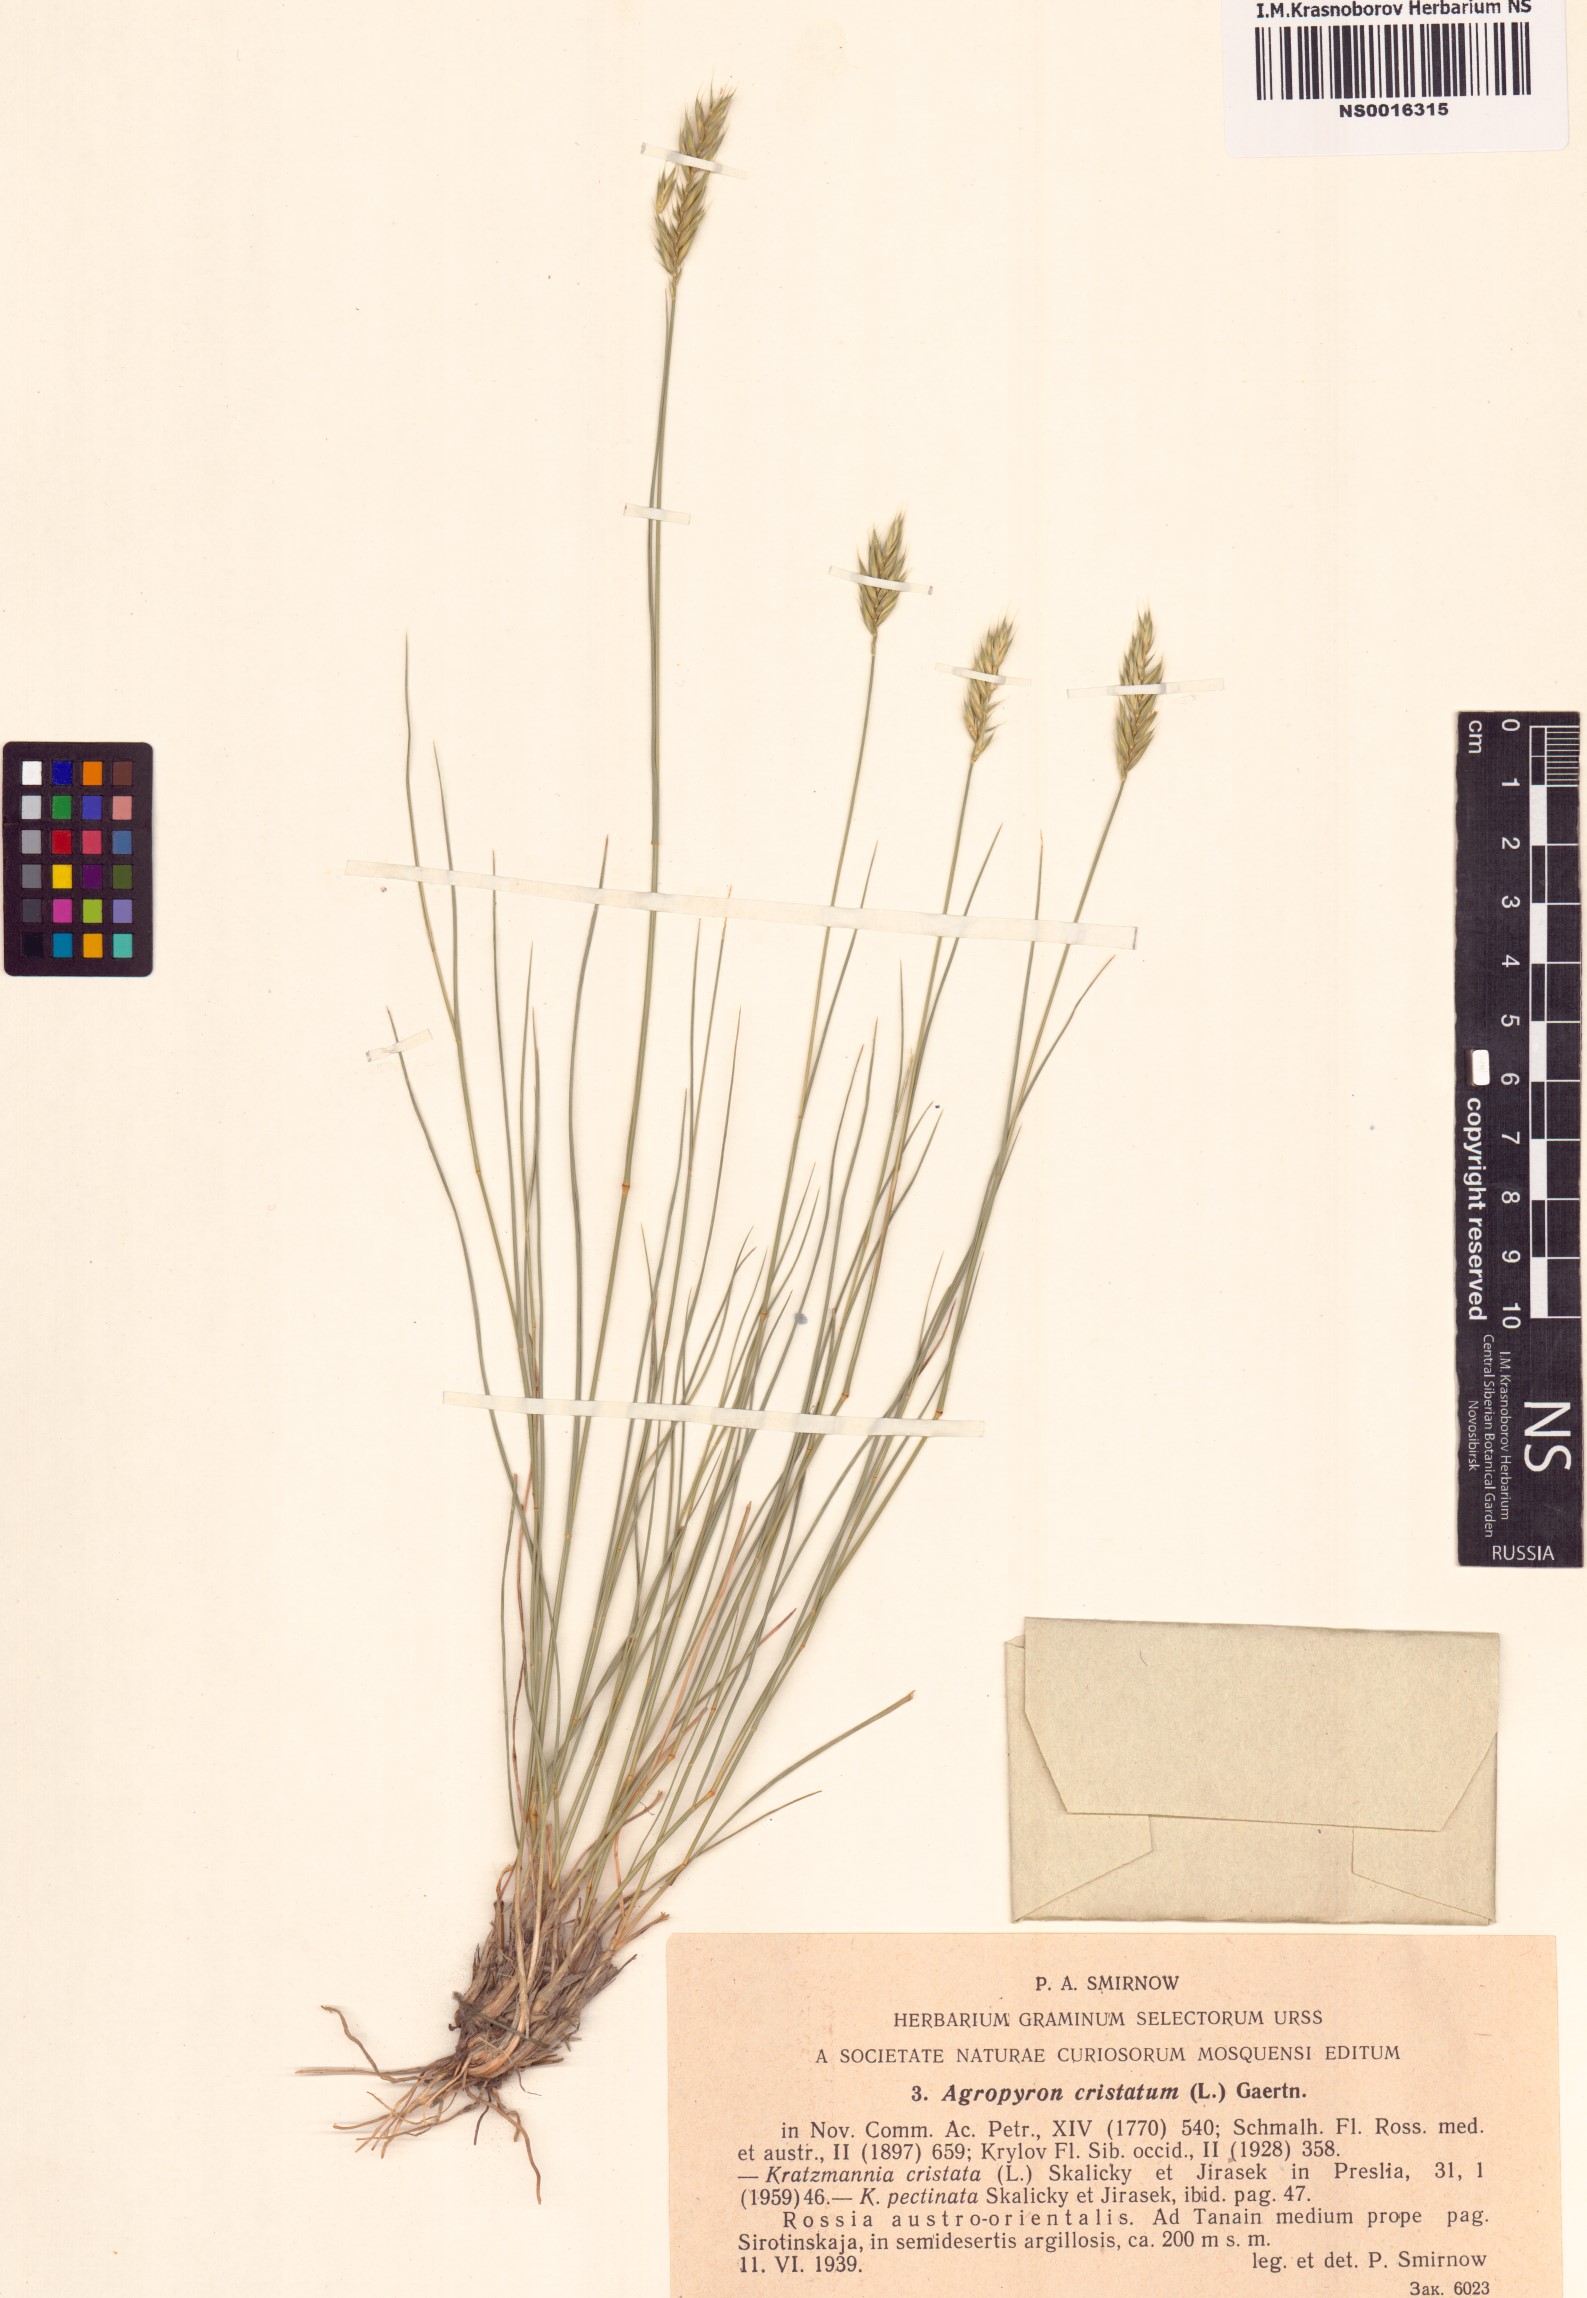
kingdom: Plantae
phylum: Tracheophyta
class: Liliopsida
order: Poales
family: Poaceae
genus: Agropyron
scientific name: Agropyron cristatum
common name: Crested wheatgrass
